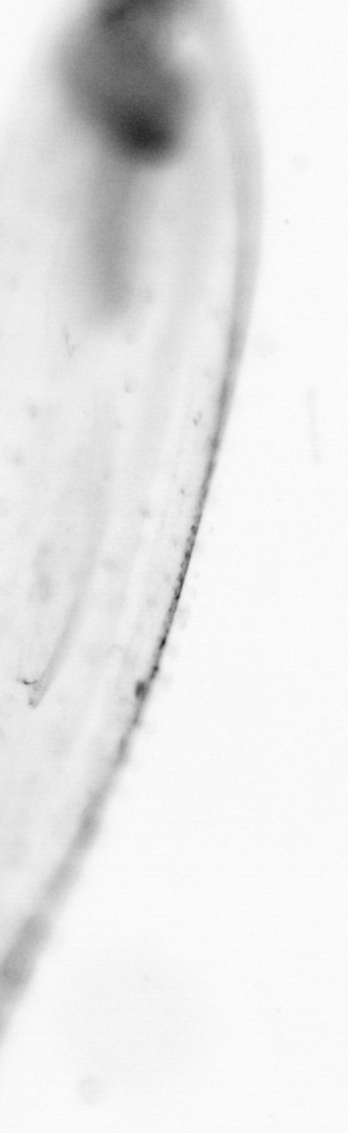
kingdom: Animalia
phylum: Chaetognatha
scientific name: Chaetognatha
